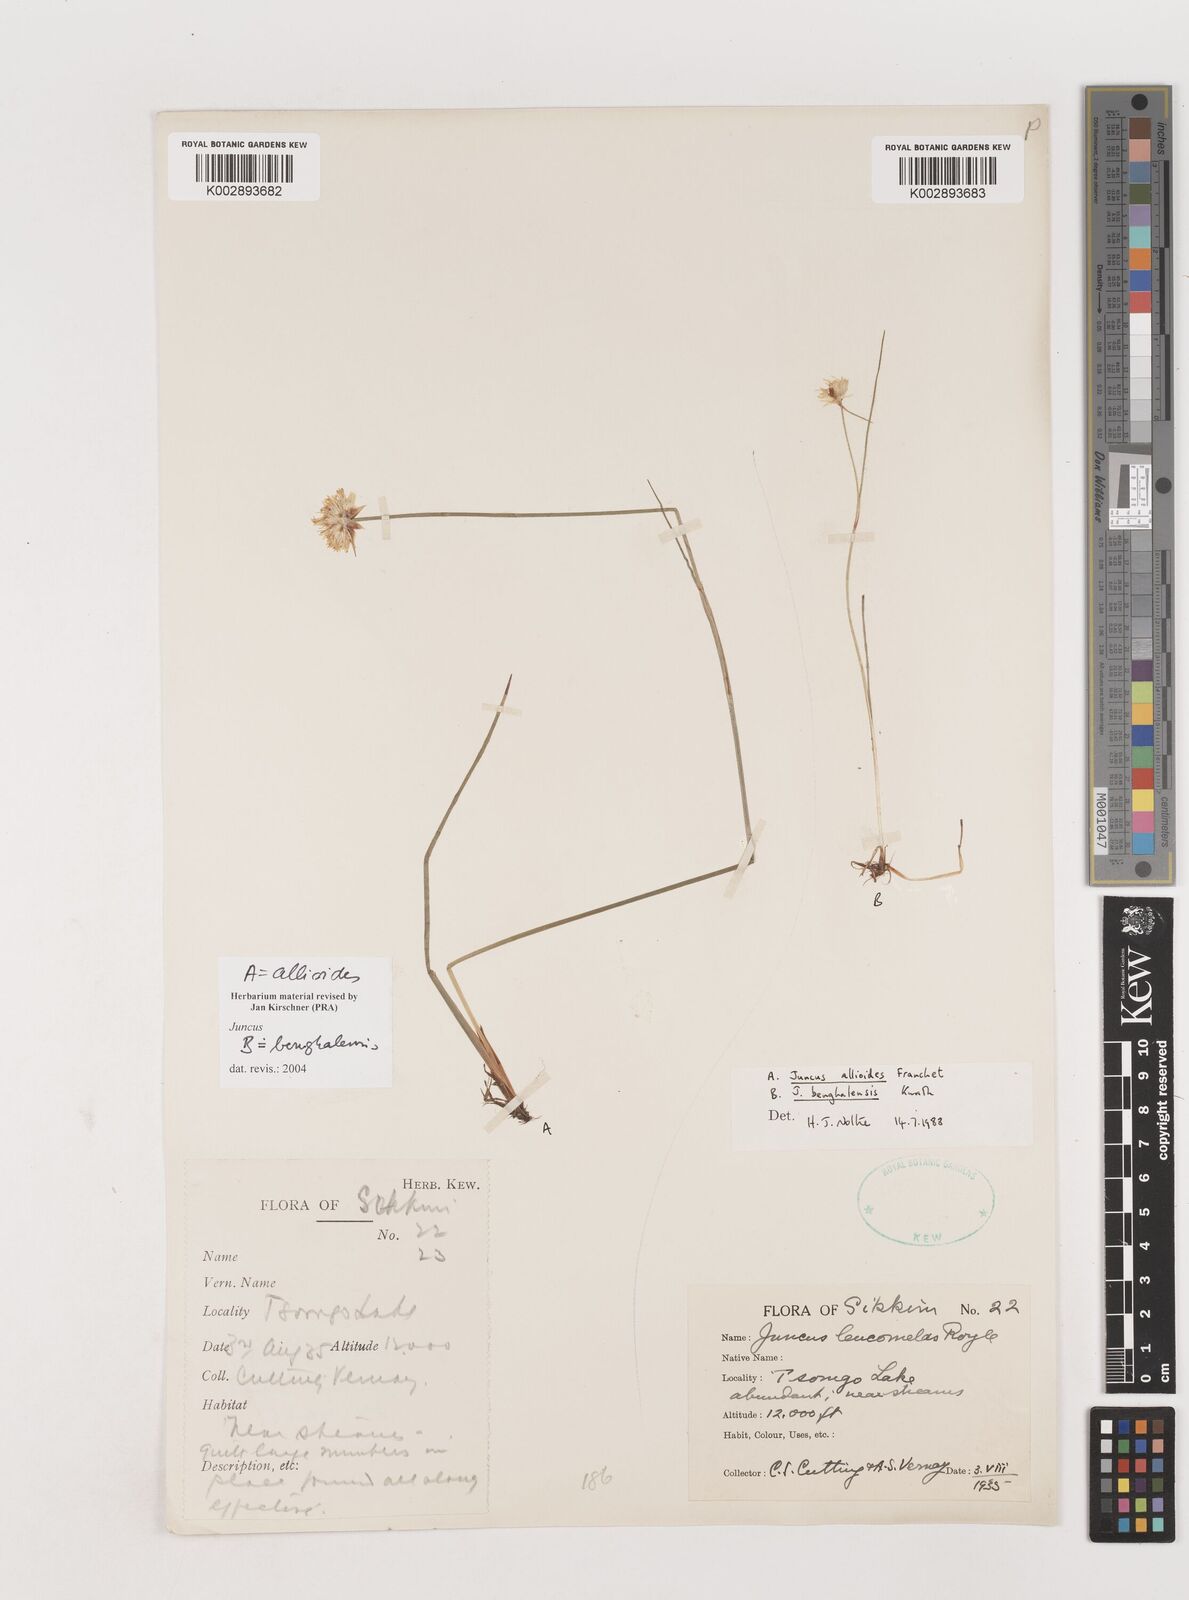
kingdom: Plantae
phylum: Tracheophyta
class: Liliopsida
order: Poales
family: Juncaceae
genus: Juncus
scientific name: Juncus allioides
